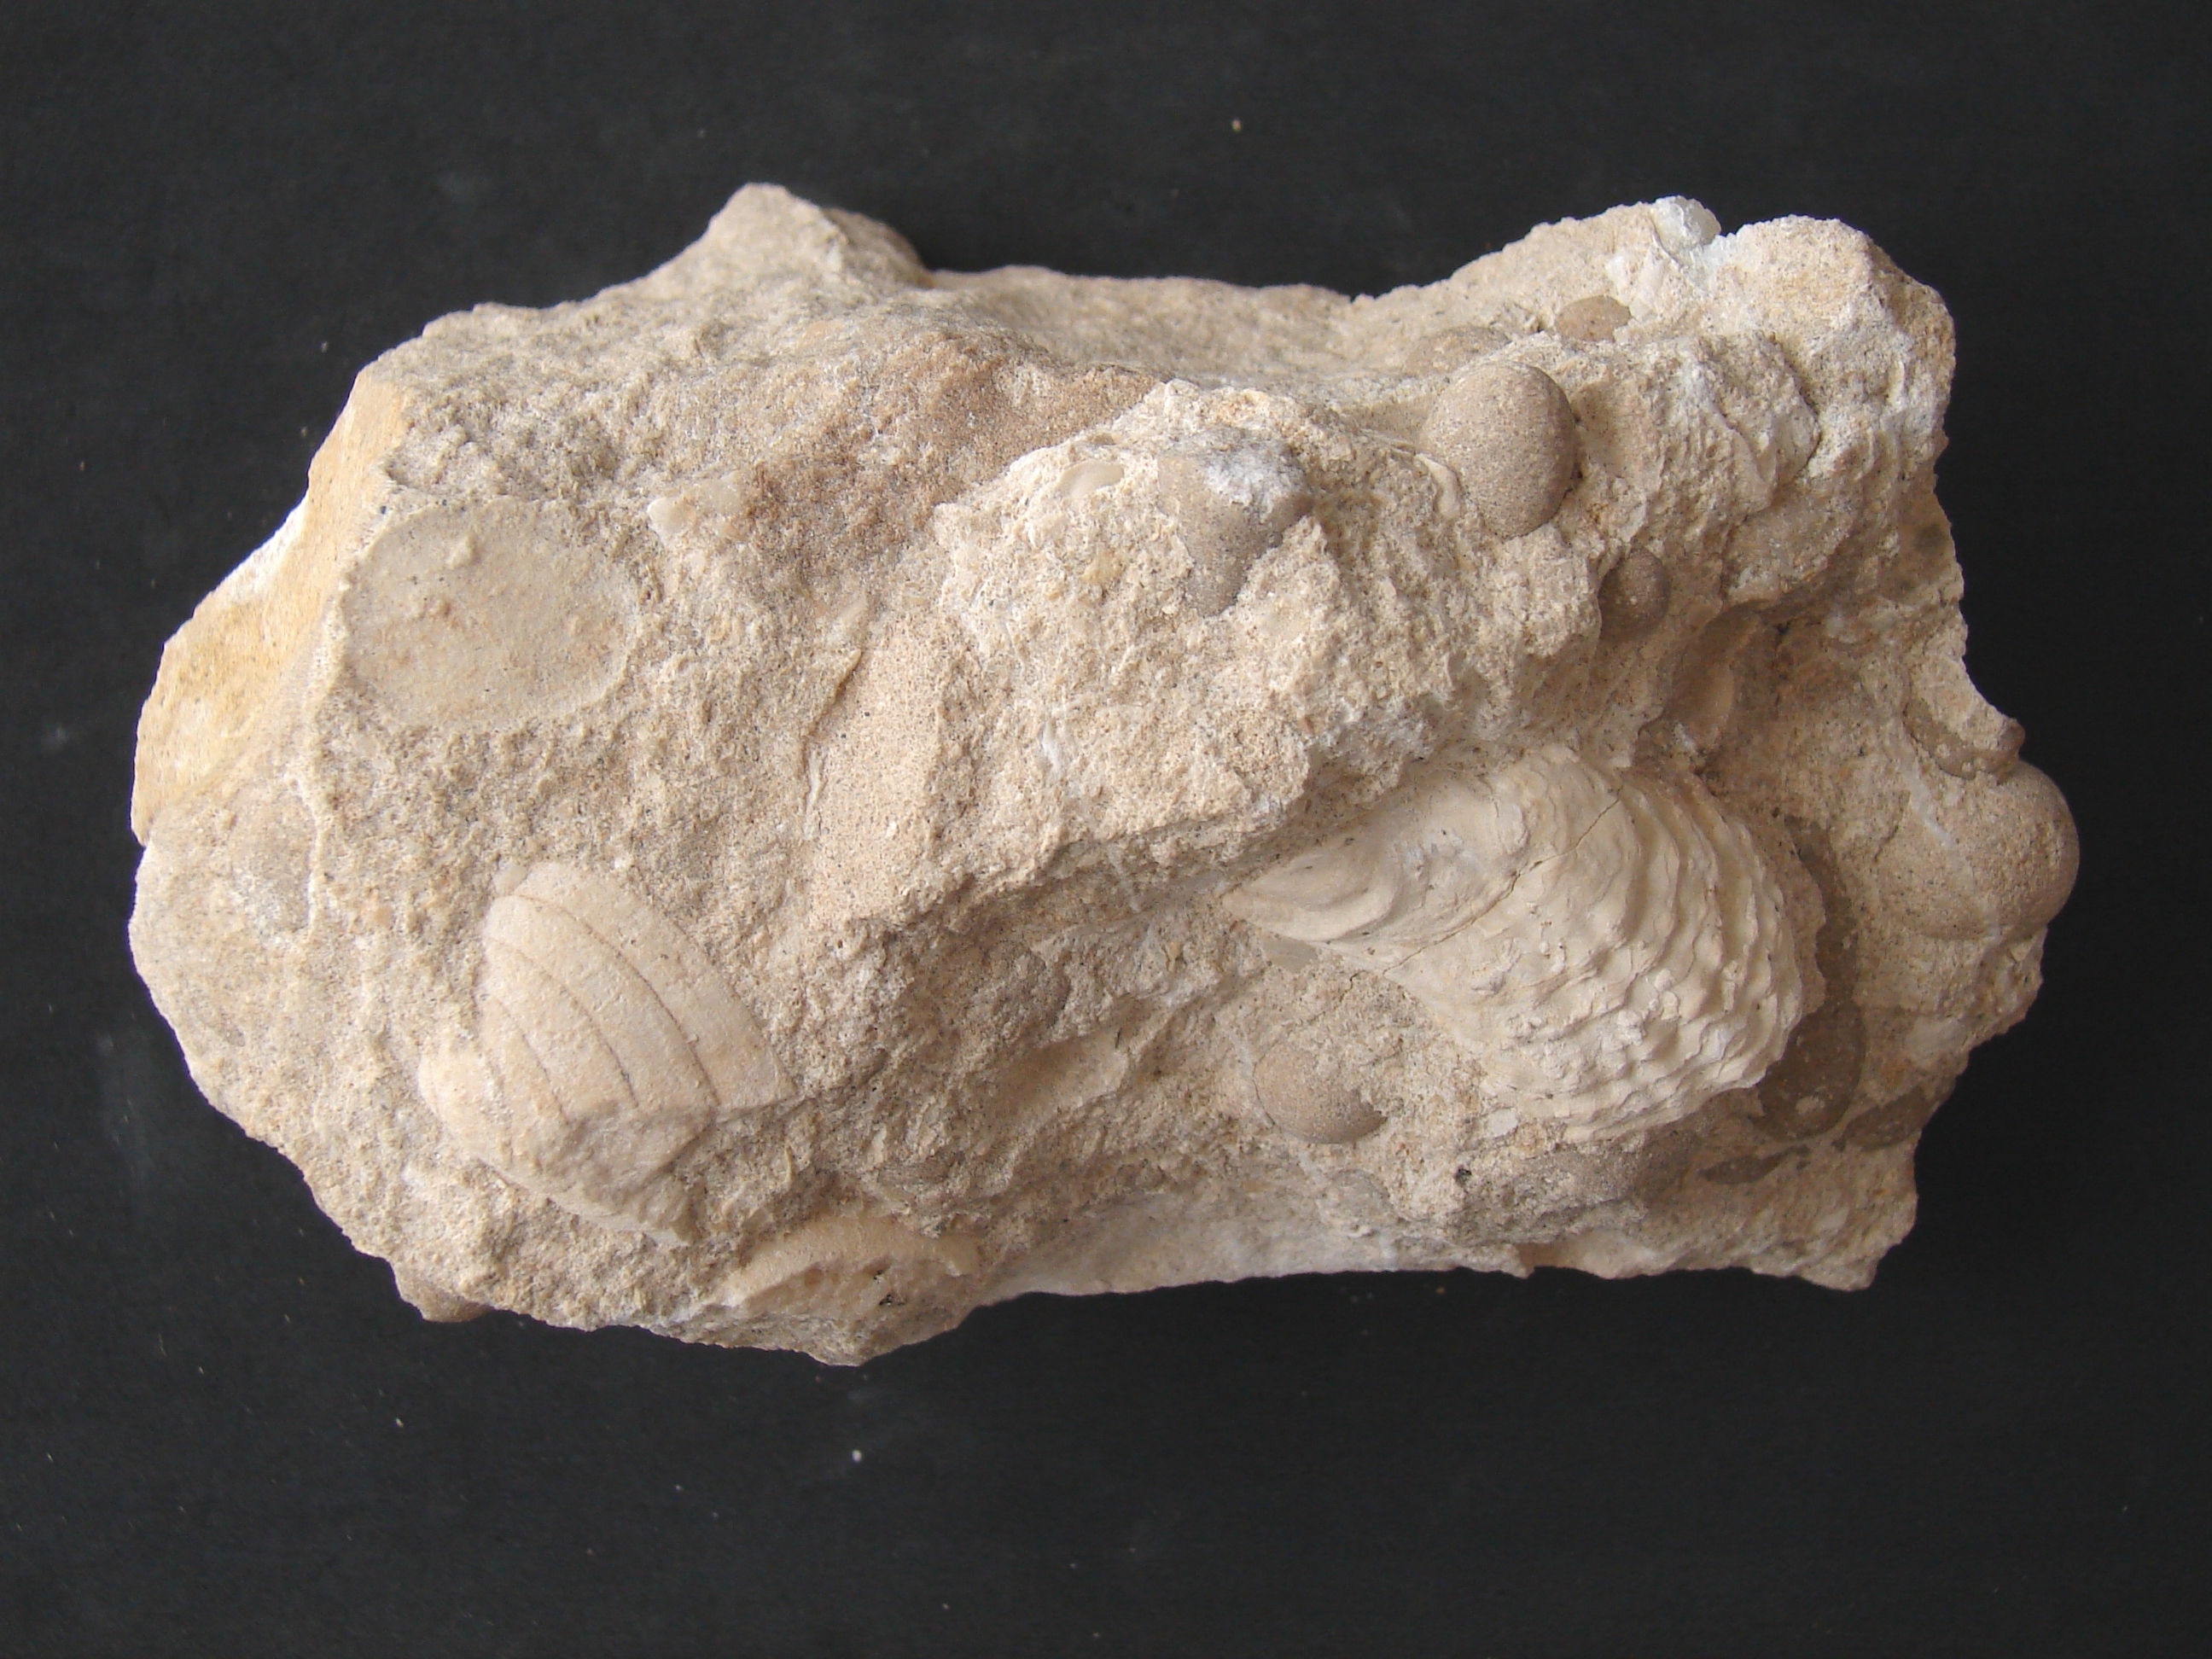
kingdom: Animalia
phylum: Mollusca
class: Bivalvia
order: Pectinida
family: Plicatulidae
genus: Plicatula
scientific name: Plicatula
